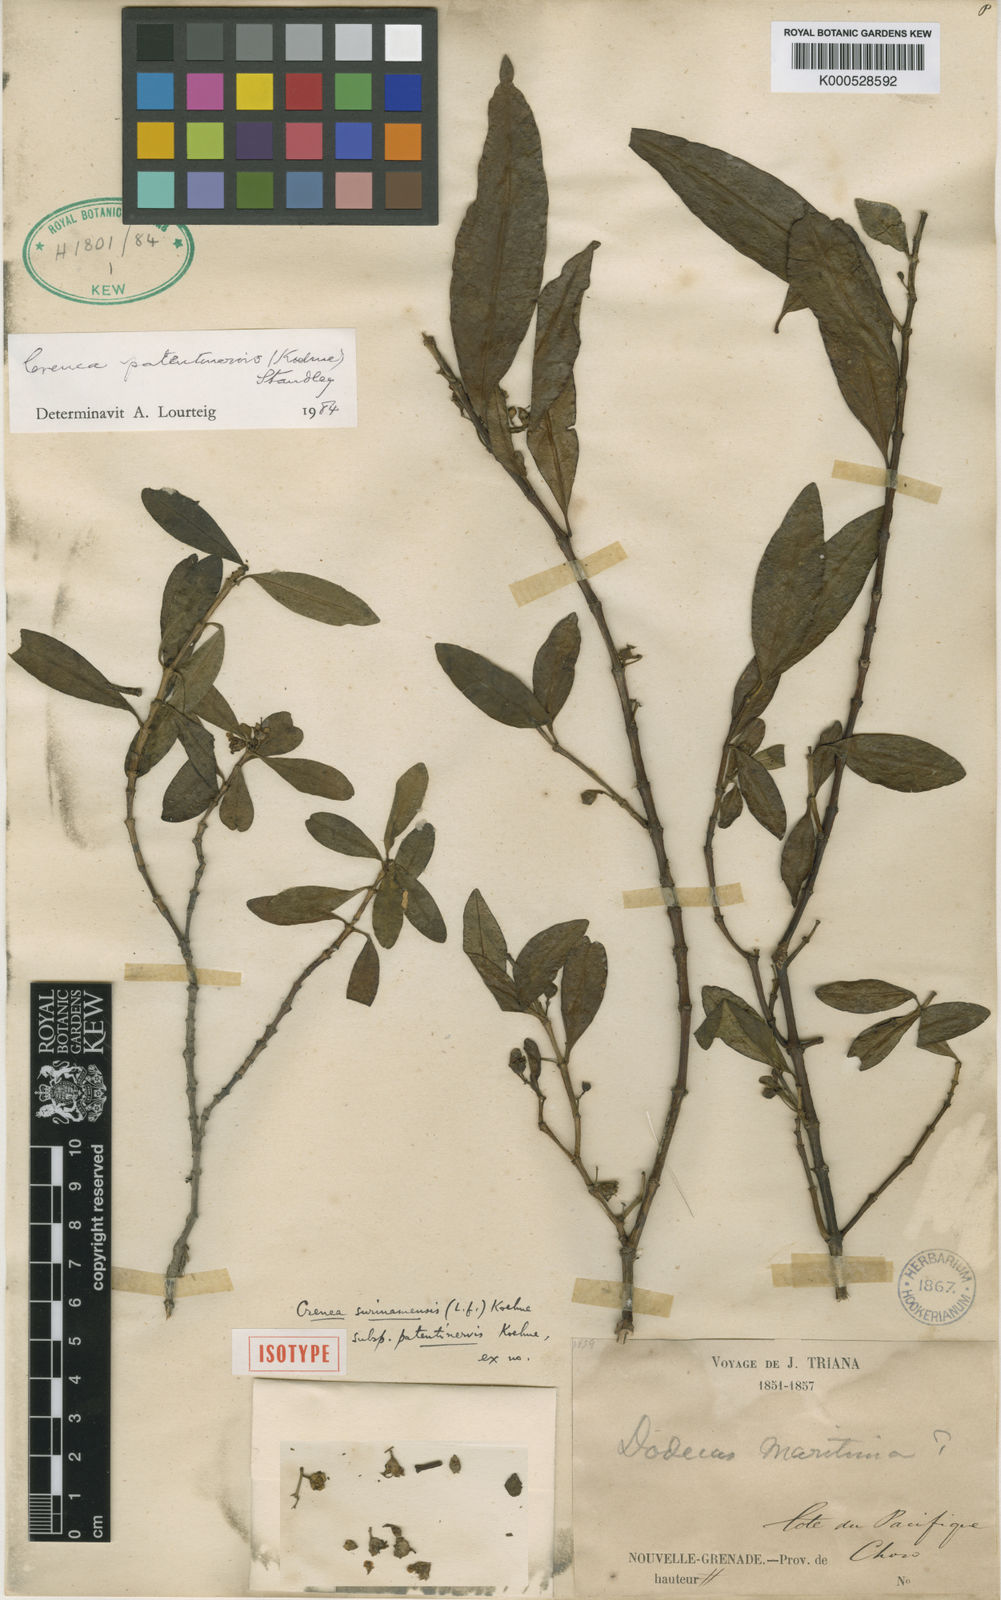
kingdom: Plantae
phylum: Tracheophyta
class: Magnoliopsida
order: Myrtales
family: Lythraceae
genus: Ammannia
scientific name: Ammannia patentinervis
